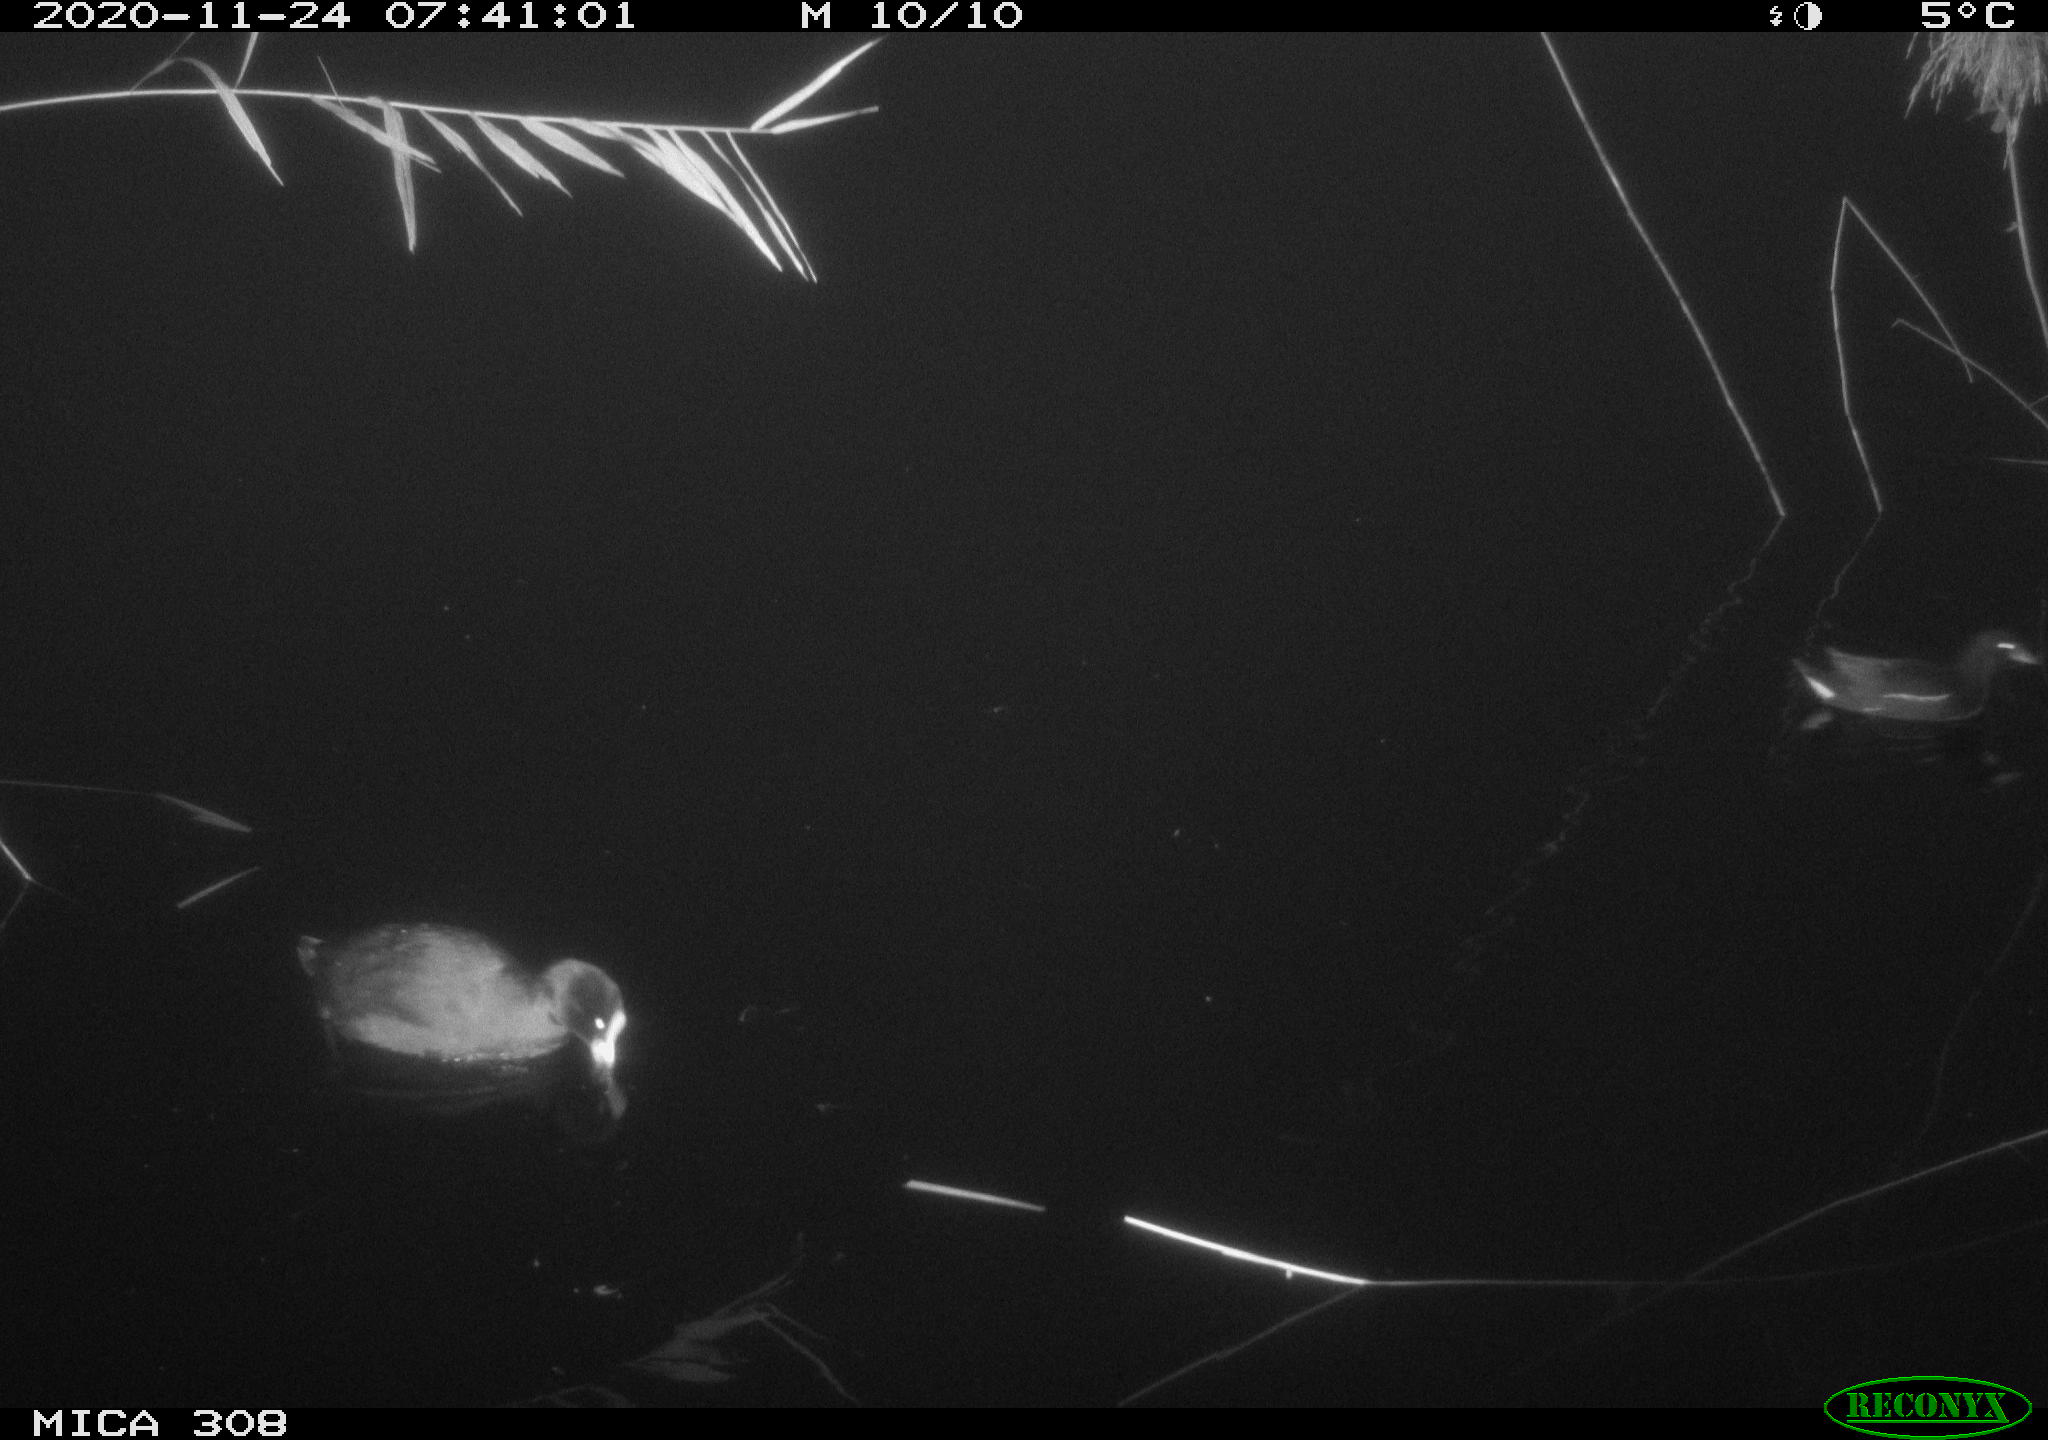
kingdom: Animalia
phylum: Chordata
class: Aves
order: Gruiformes
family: Rallidae
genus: Fulica
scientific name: Fulica atra
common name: Eurasian coot
